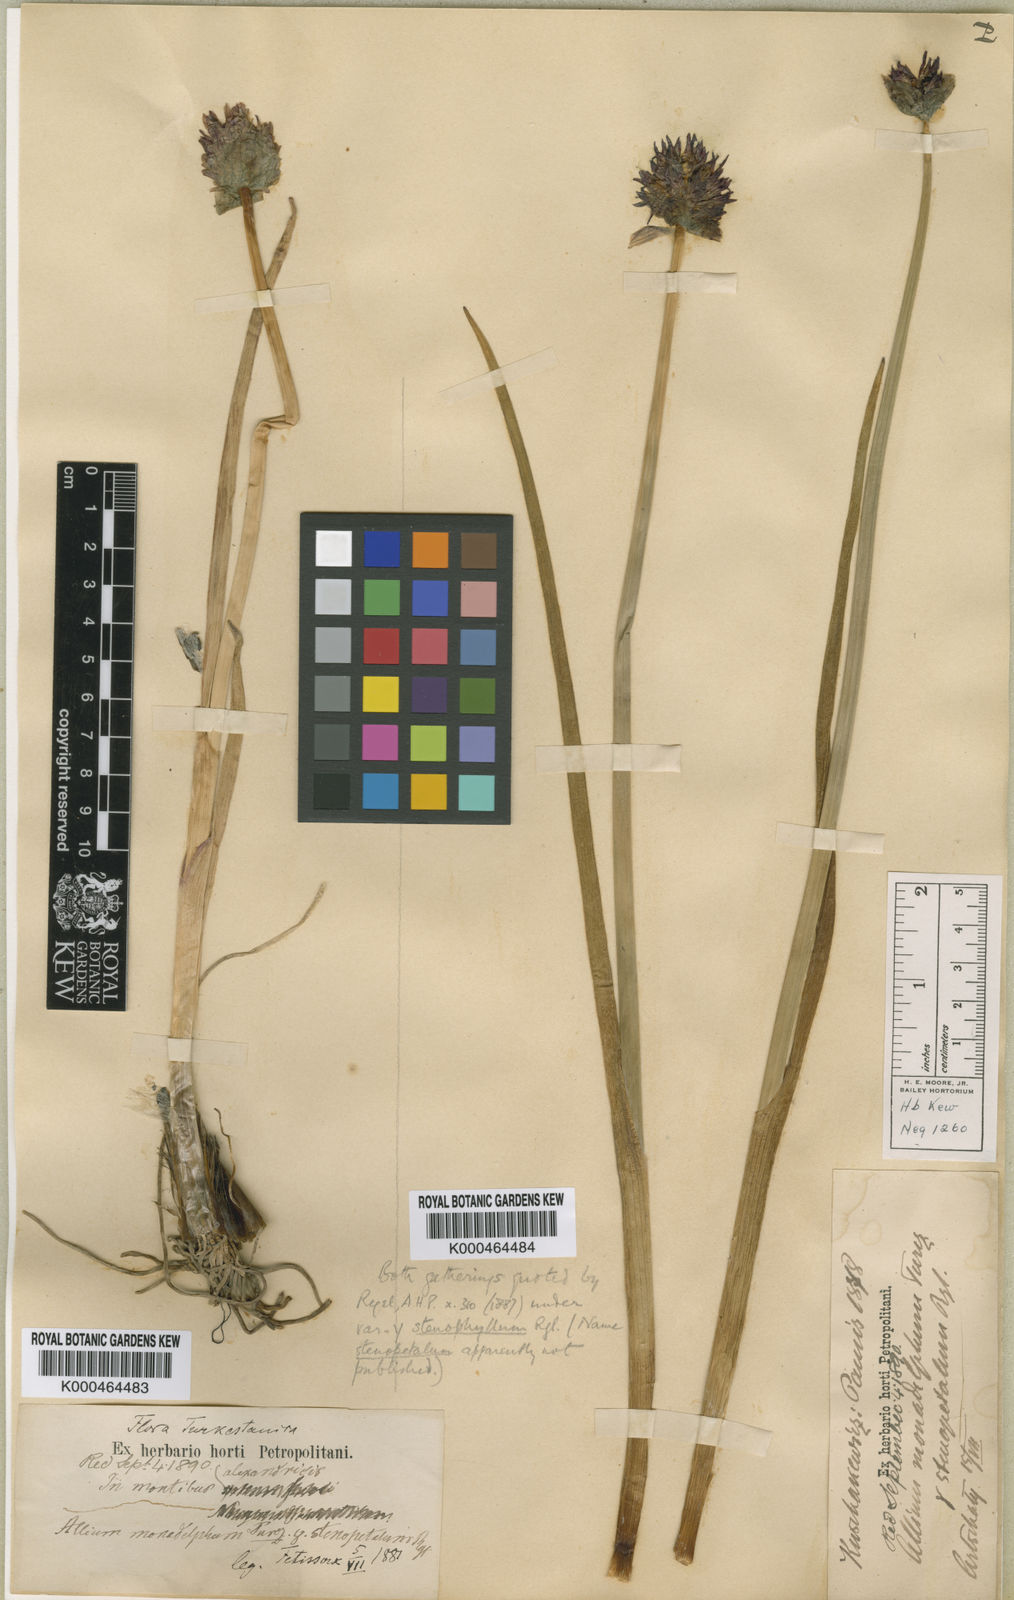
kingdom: Plantae
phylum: Tracheophyta
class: Liliopsida
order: Asparagales
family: Amaryllidaceae
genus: Allium
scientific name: Allium atrosanguineum
